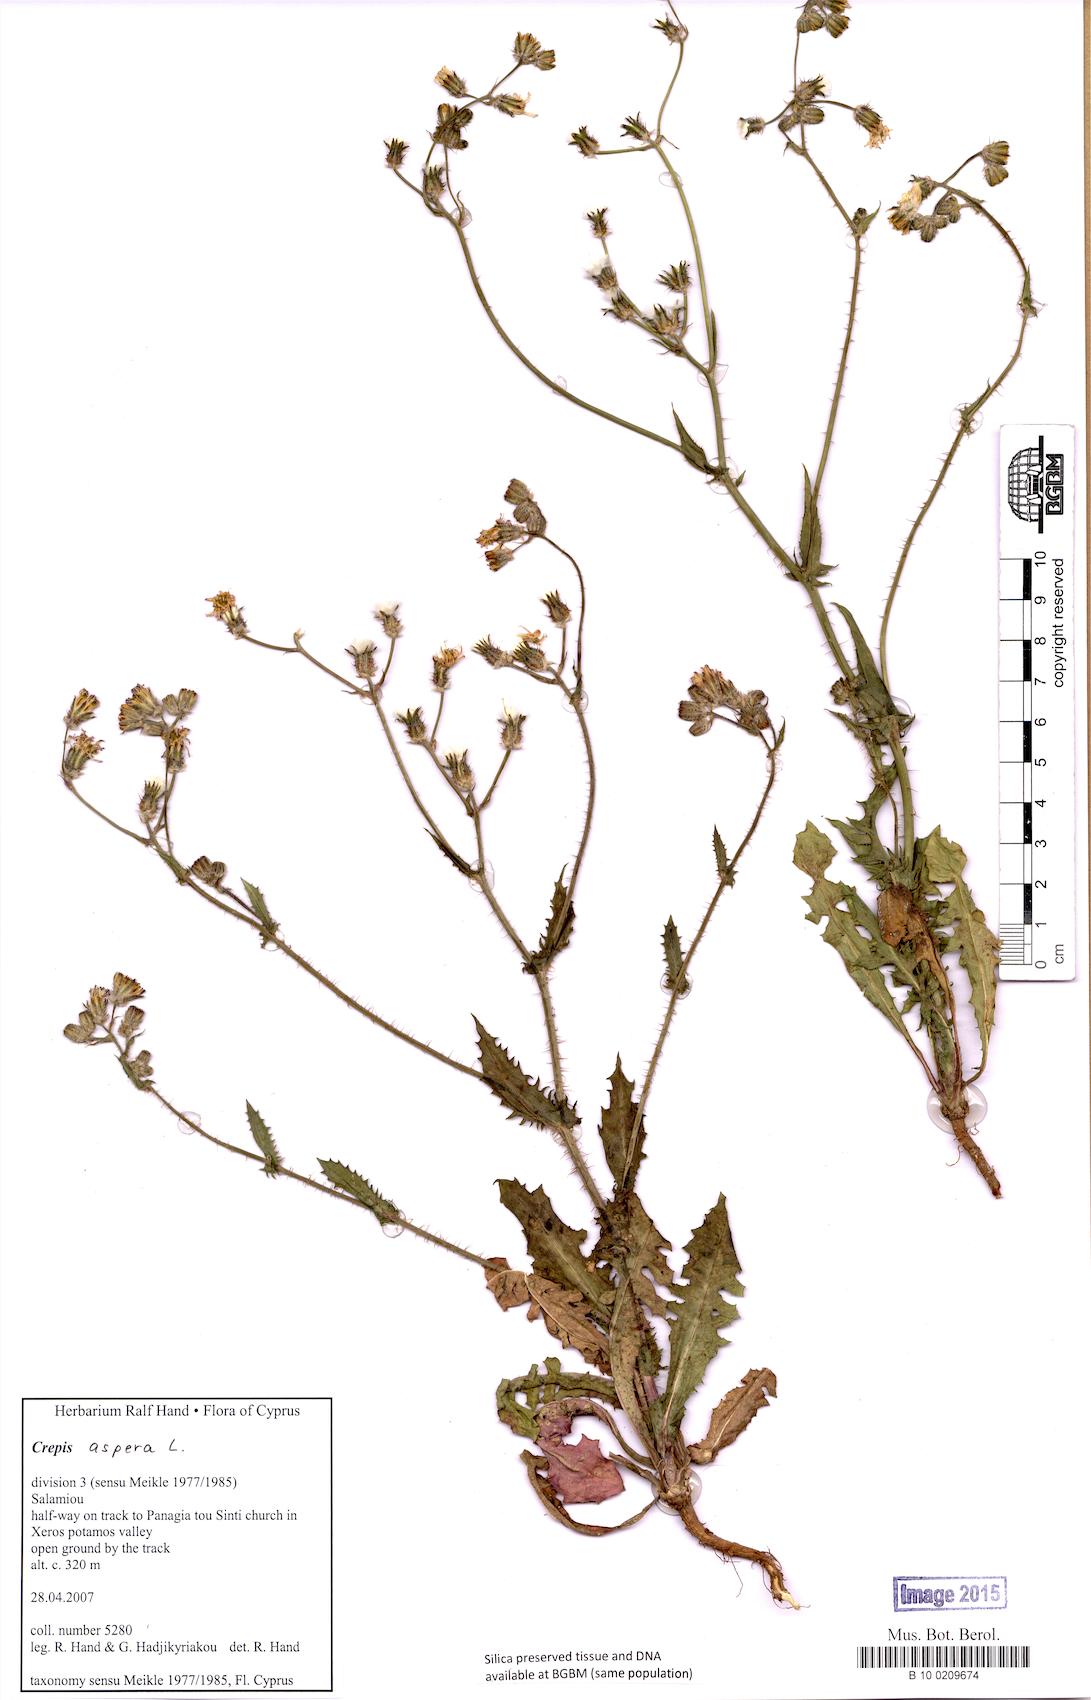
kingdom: Plantae
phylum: Tracheophyta
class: Magnoliopsida
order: Asterales
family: Asteraceae
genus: Crepis
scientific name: Crepis aspera
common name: Hawk's-beard
